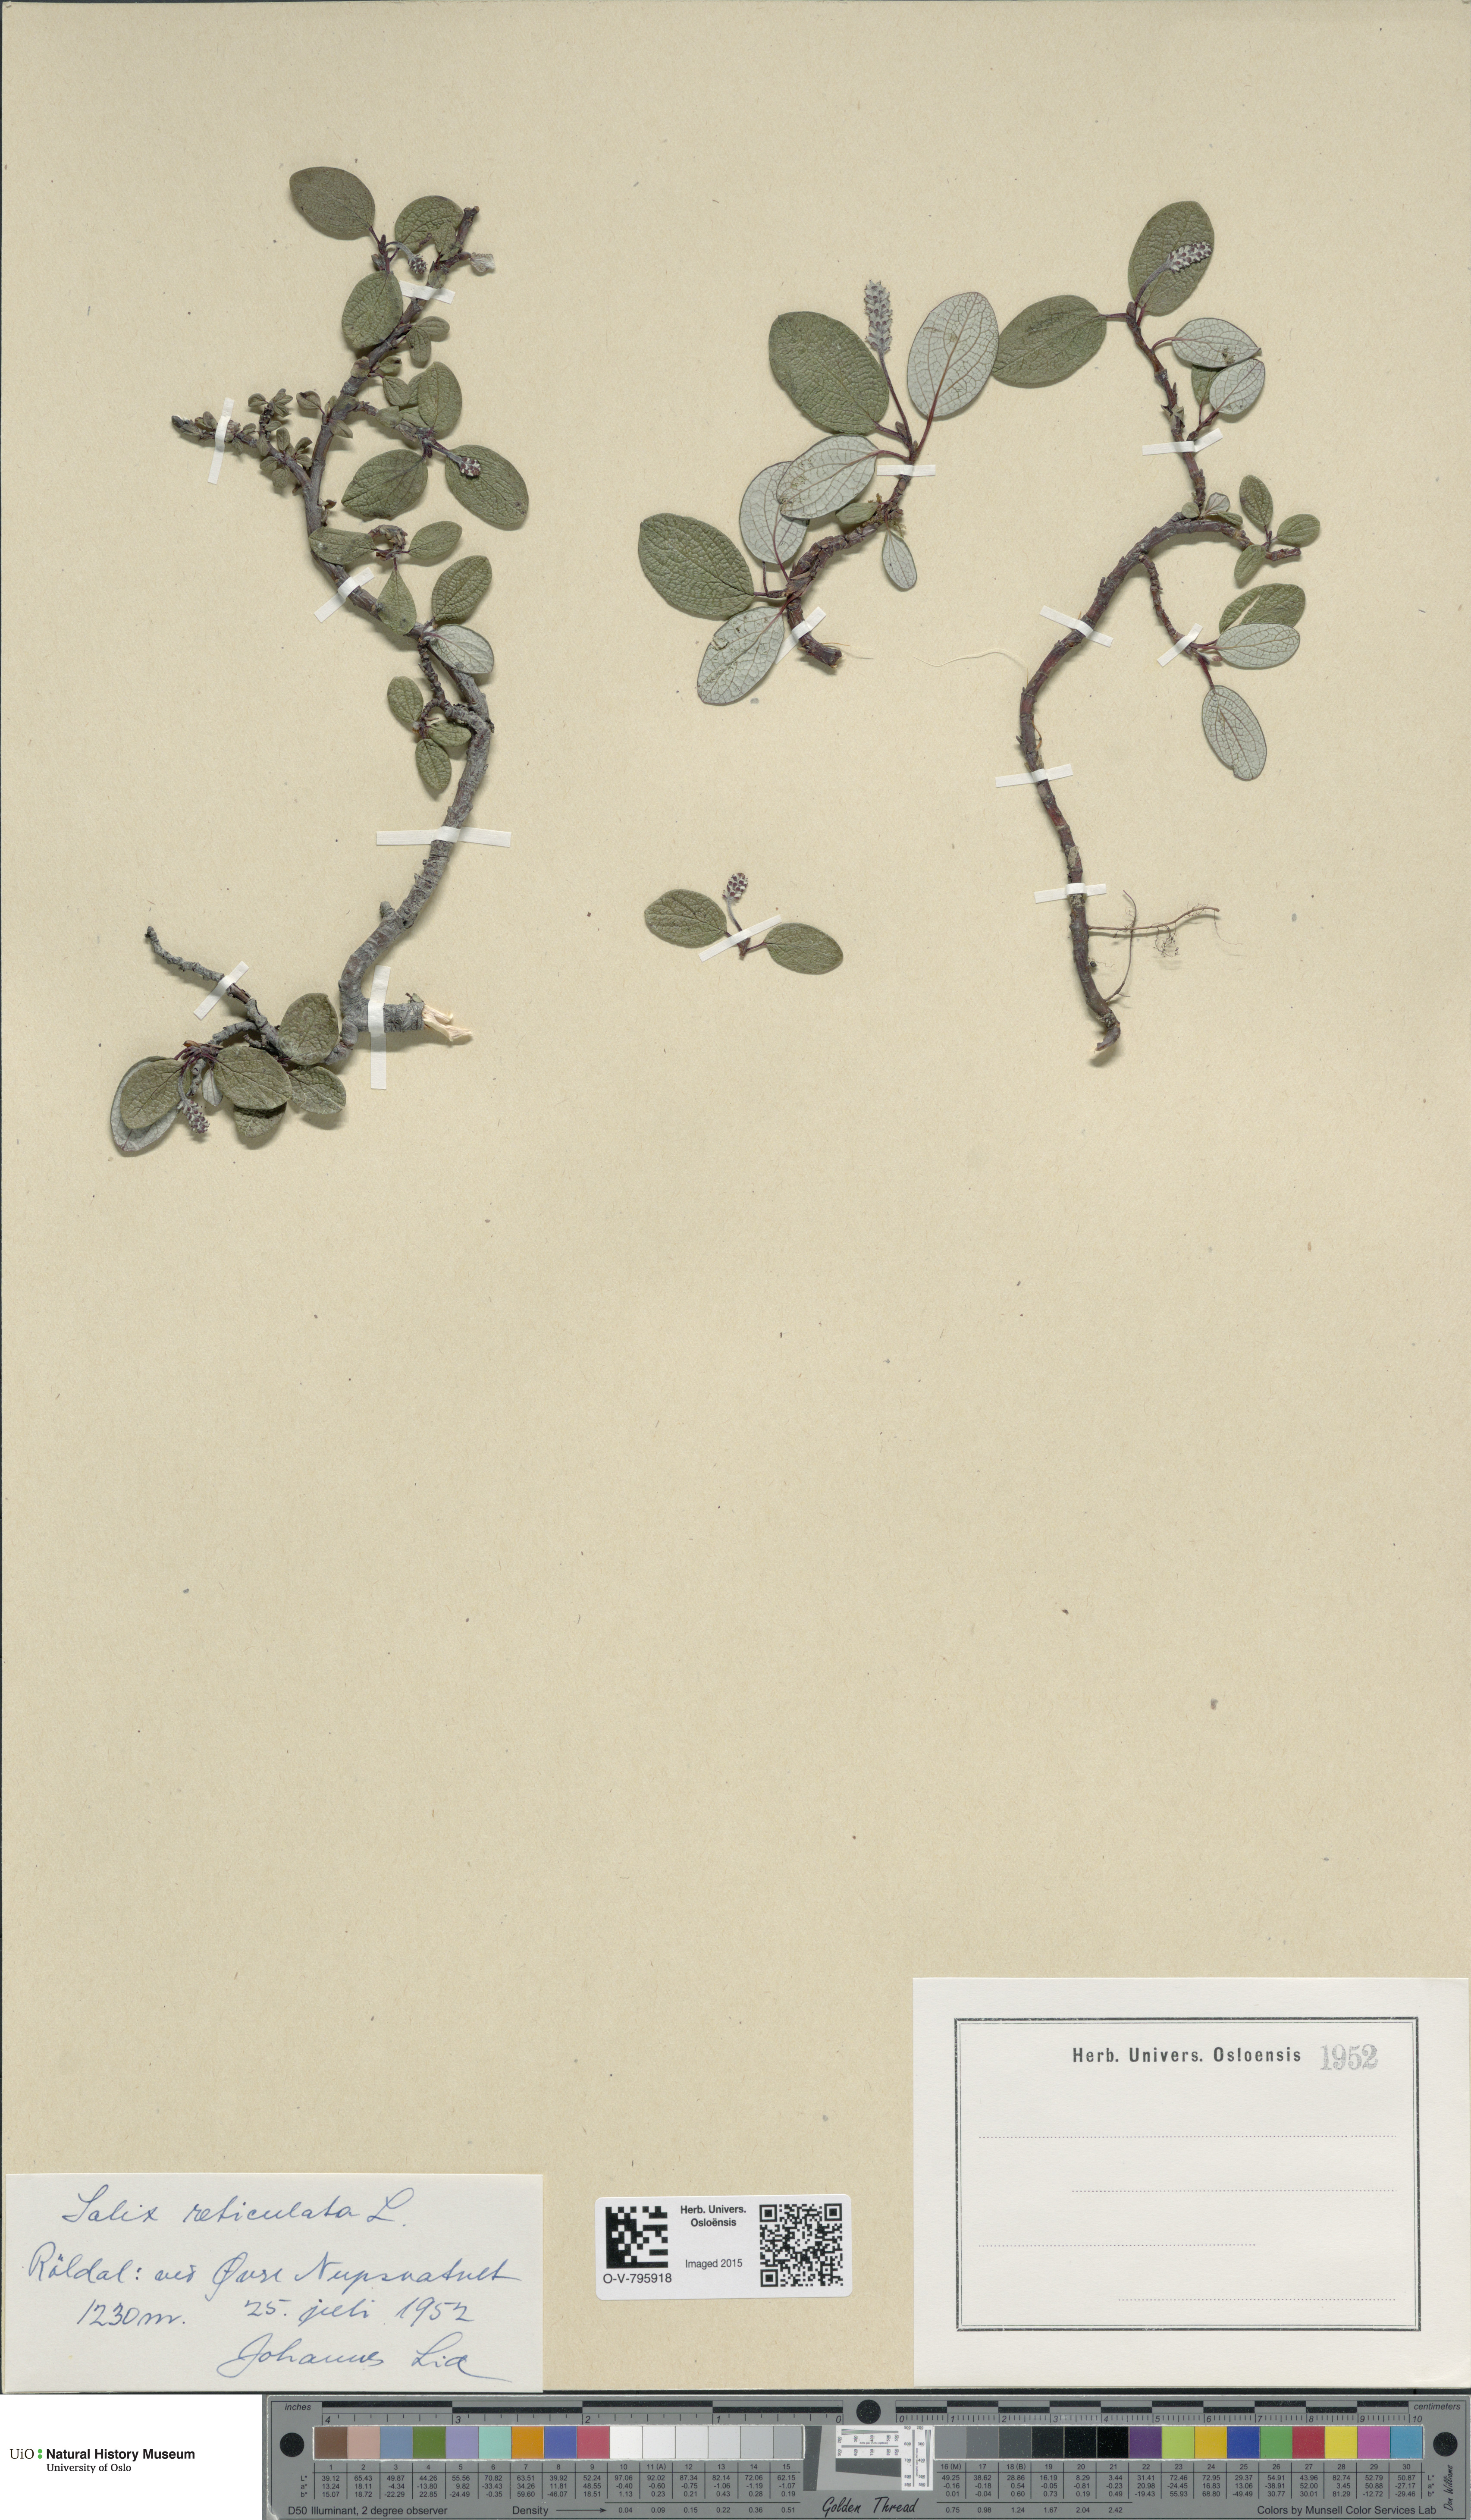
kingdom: Plantae
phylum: Tracheophyta
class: Magnoliopsida
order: Malpighiales
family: Salicaceae
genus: Salix
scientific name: Salix reticulata
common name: Net-leaved willow
